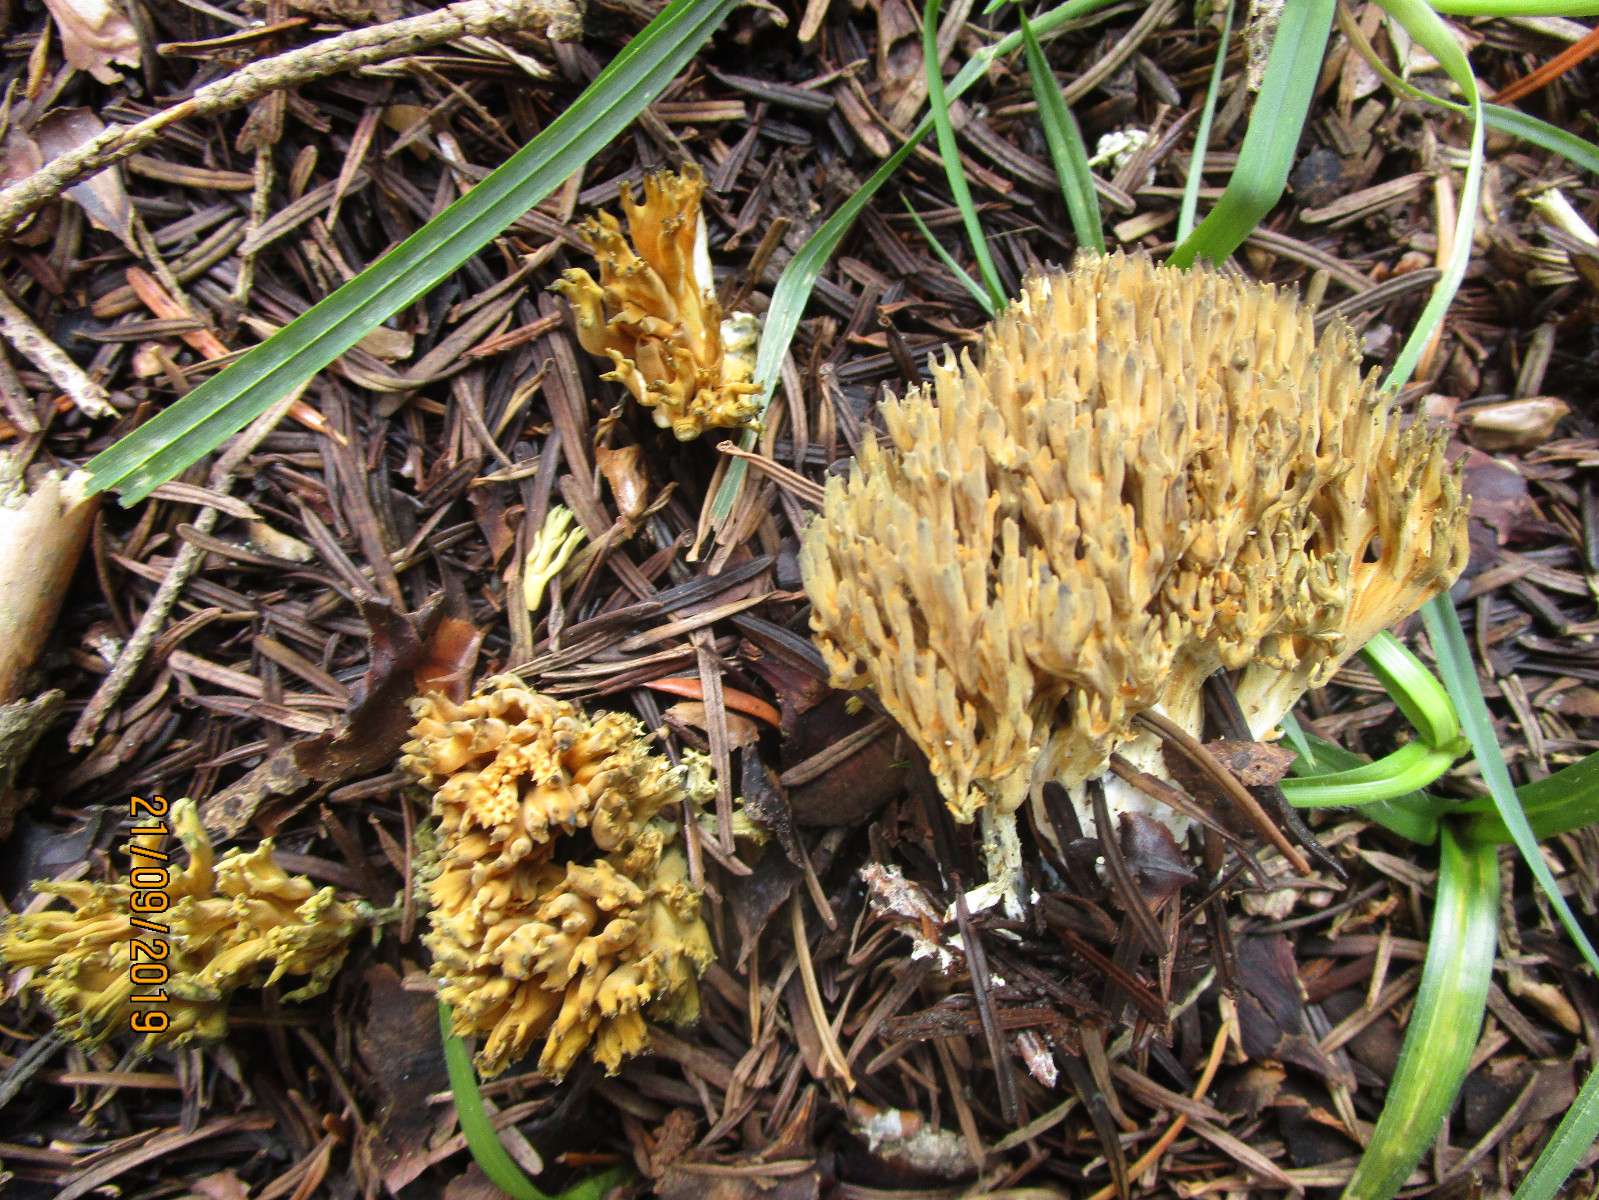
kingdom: Fungi
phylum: Basidiomycota
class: Agaricomycetes
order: Gomphales
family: Gomphaceae
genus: Phaeoclavulina
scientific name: Phaeoclavulina abietina
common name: gulgrøn koralsvamp
